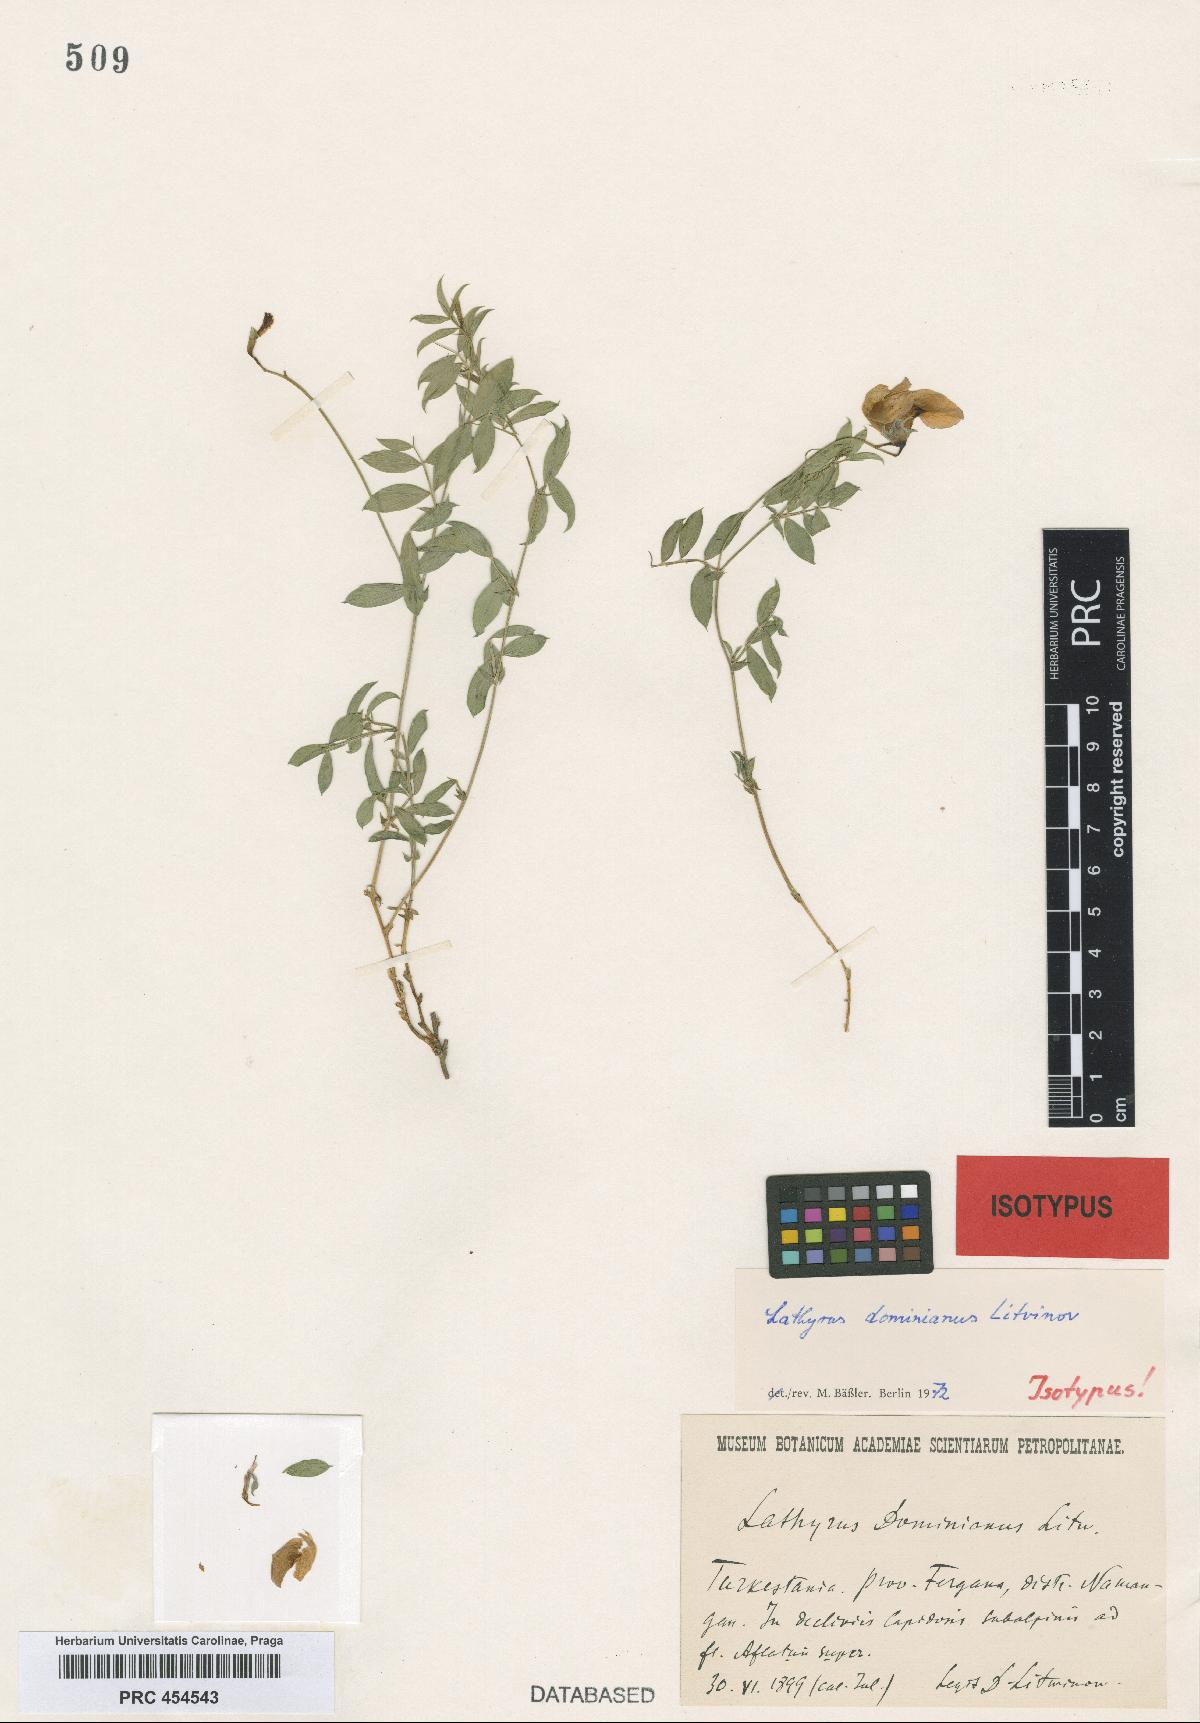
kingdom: Plantae
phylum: Tracheophyta
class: Magnoliopsida
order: Fabales
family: Fabaceae
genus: Lathyrus
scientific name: Lathyrus humilis
